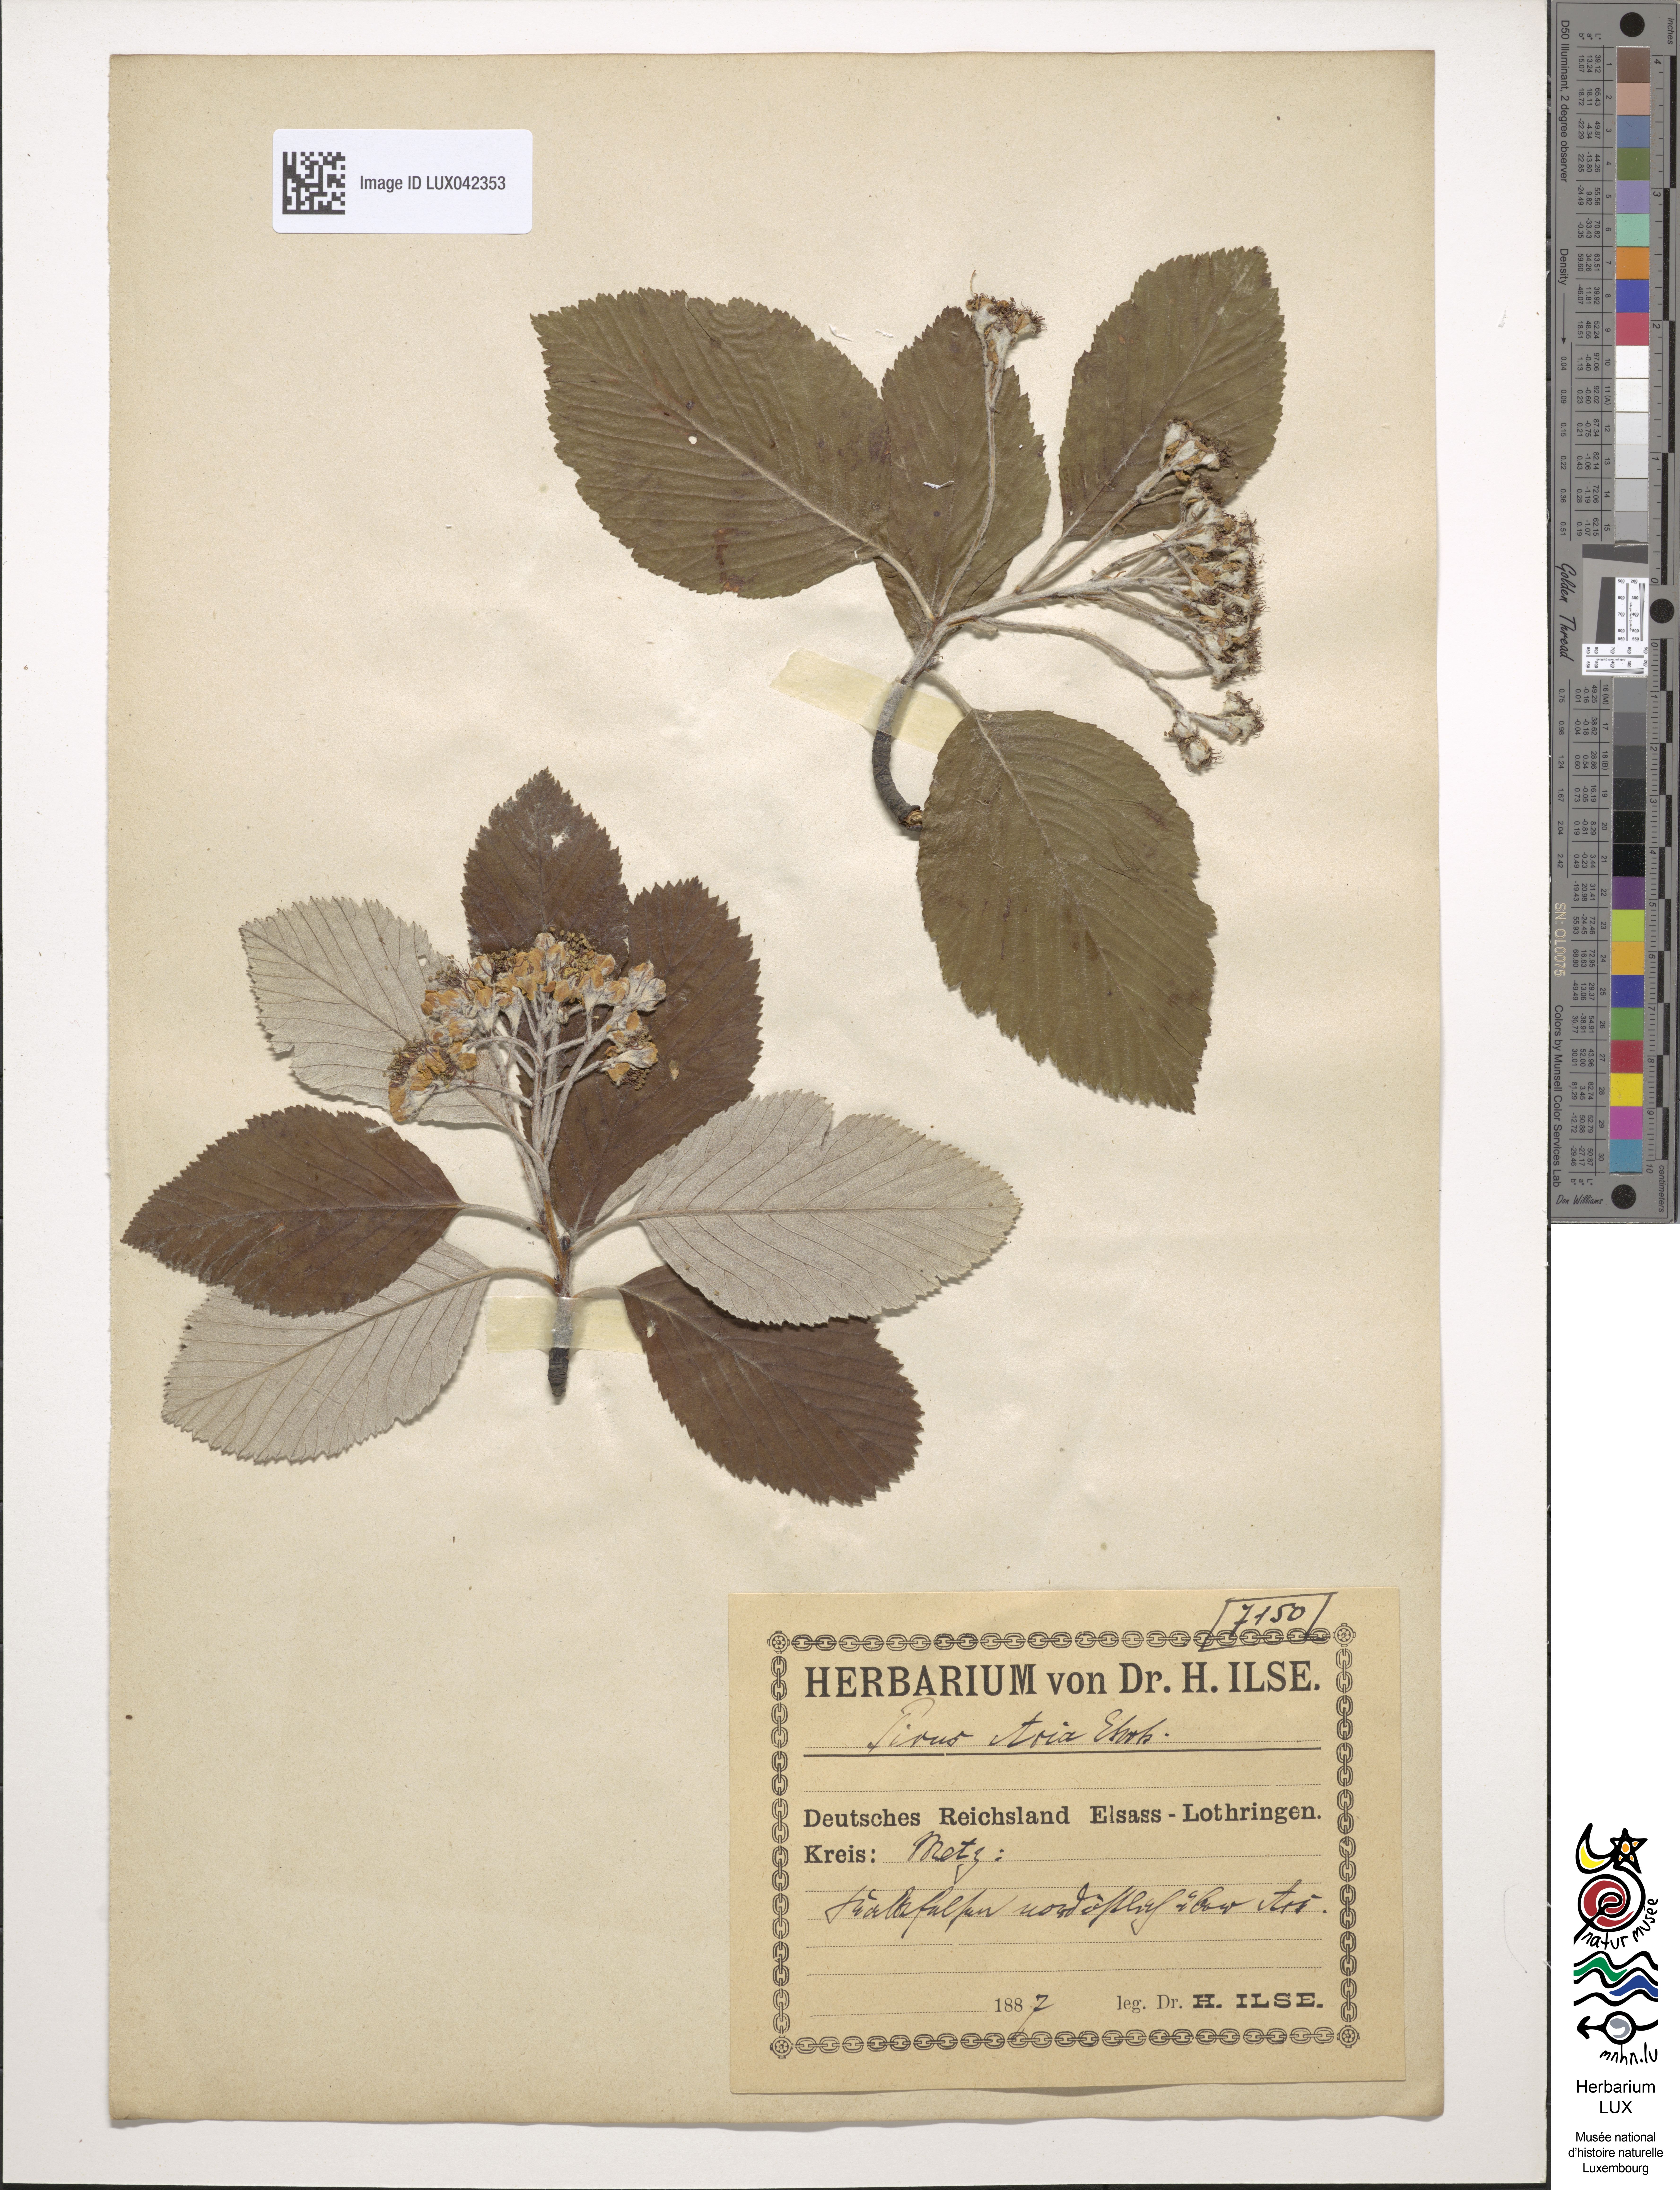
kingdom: Plantae
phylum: Tracheophyta
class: Magnoliopsida
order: Rosales
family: Rosaceae
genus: Aria
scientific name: Aria edulis
